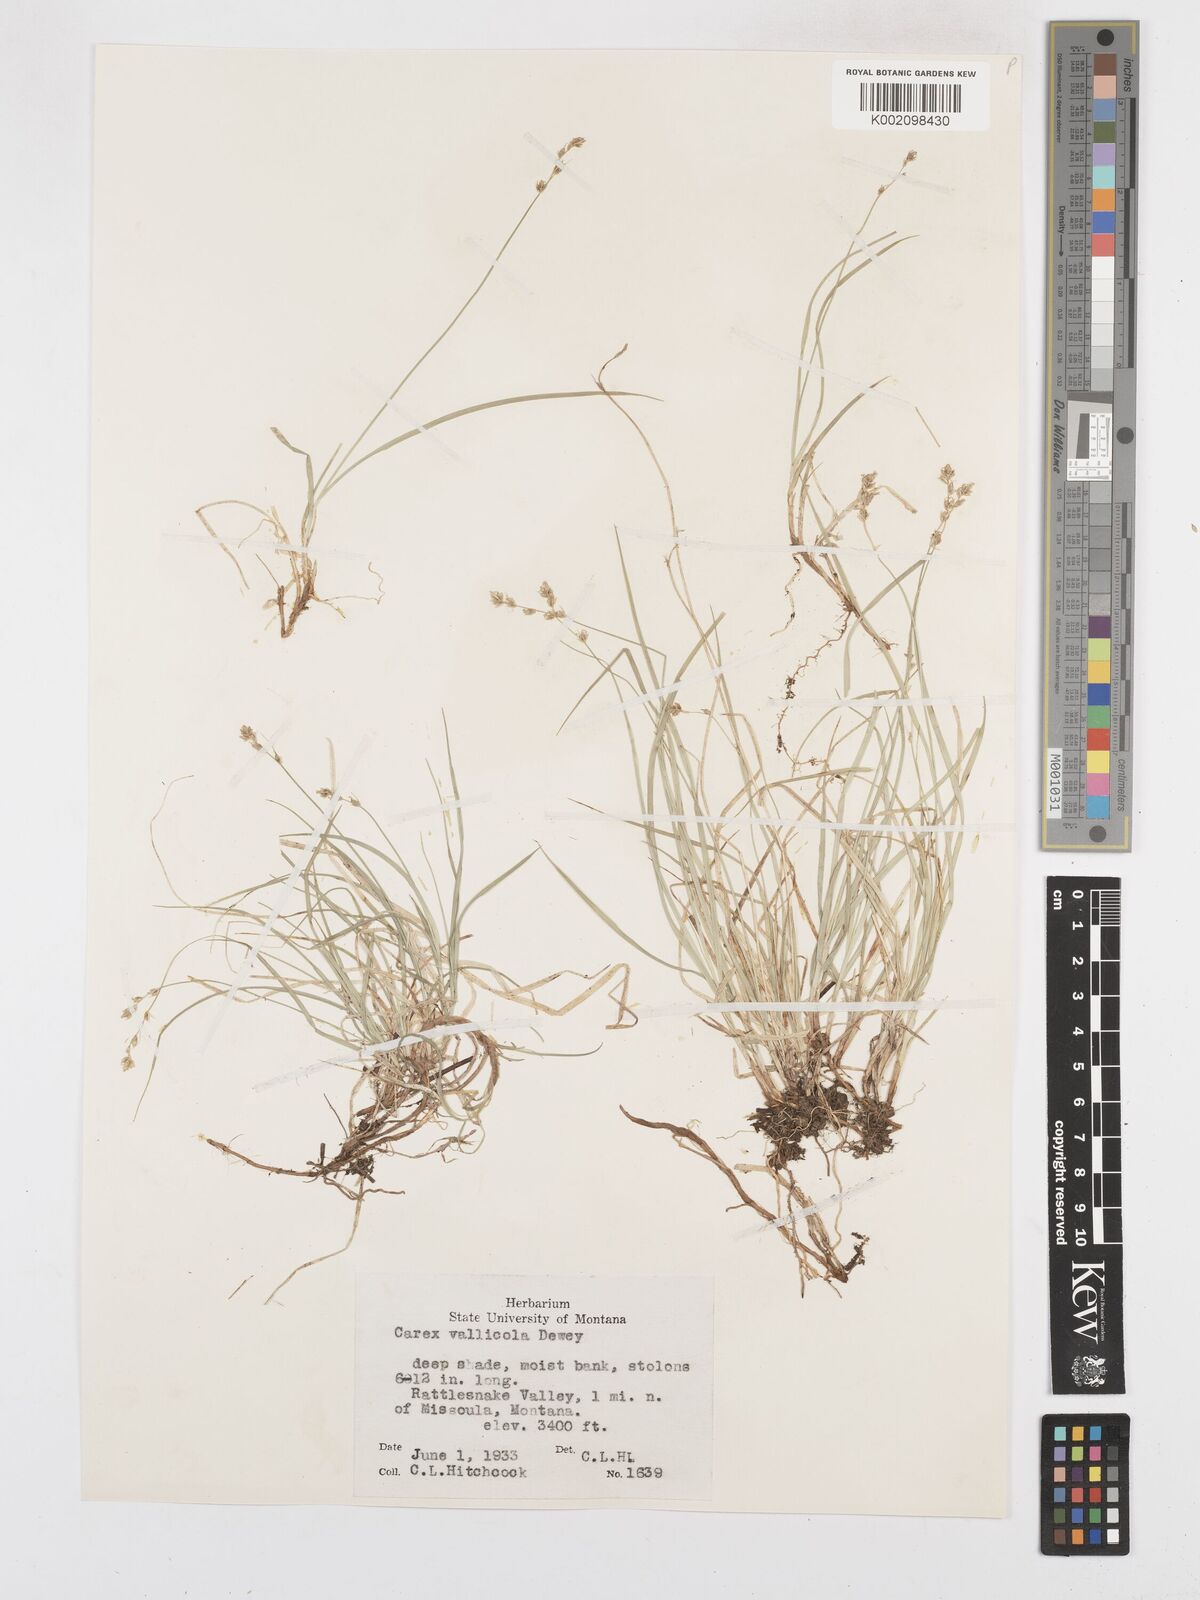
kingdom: Plantae
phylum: Tracheophyta
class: Liliopsida
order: Poales
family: Cyperaceae
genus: Carex
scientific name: Carex vallicola
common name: Valley sedge
